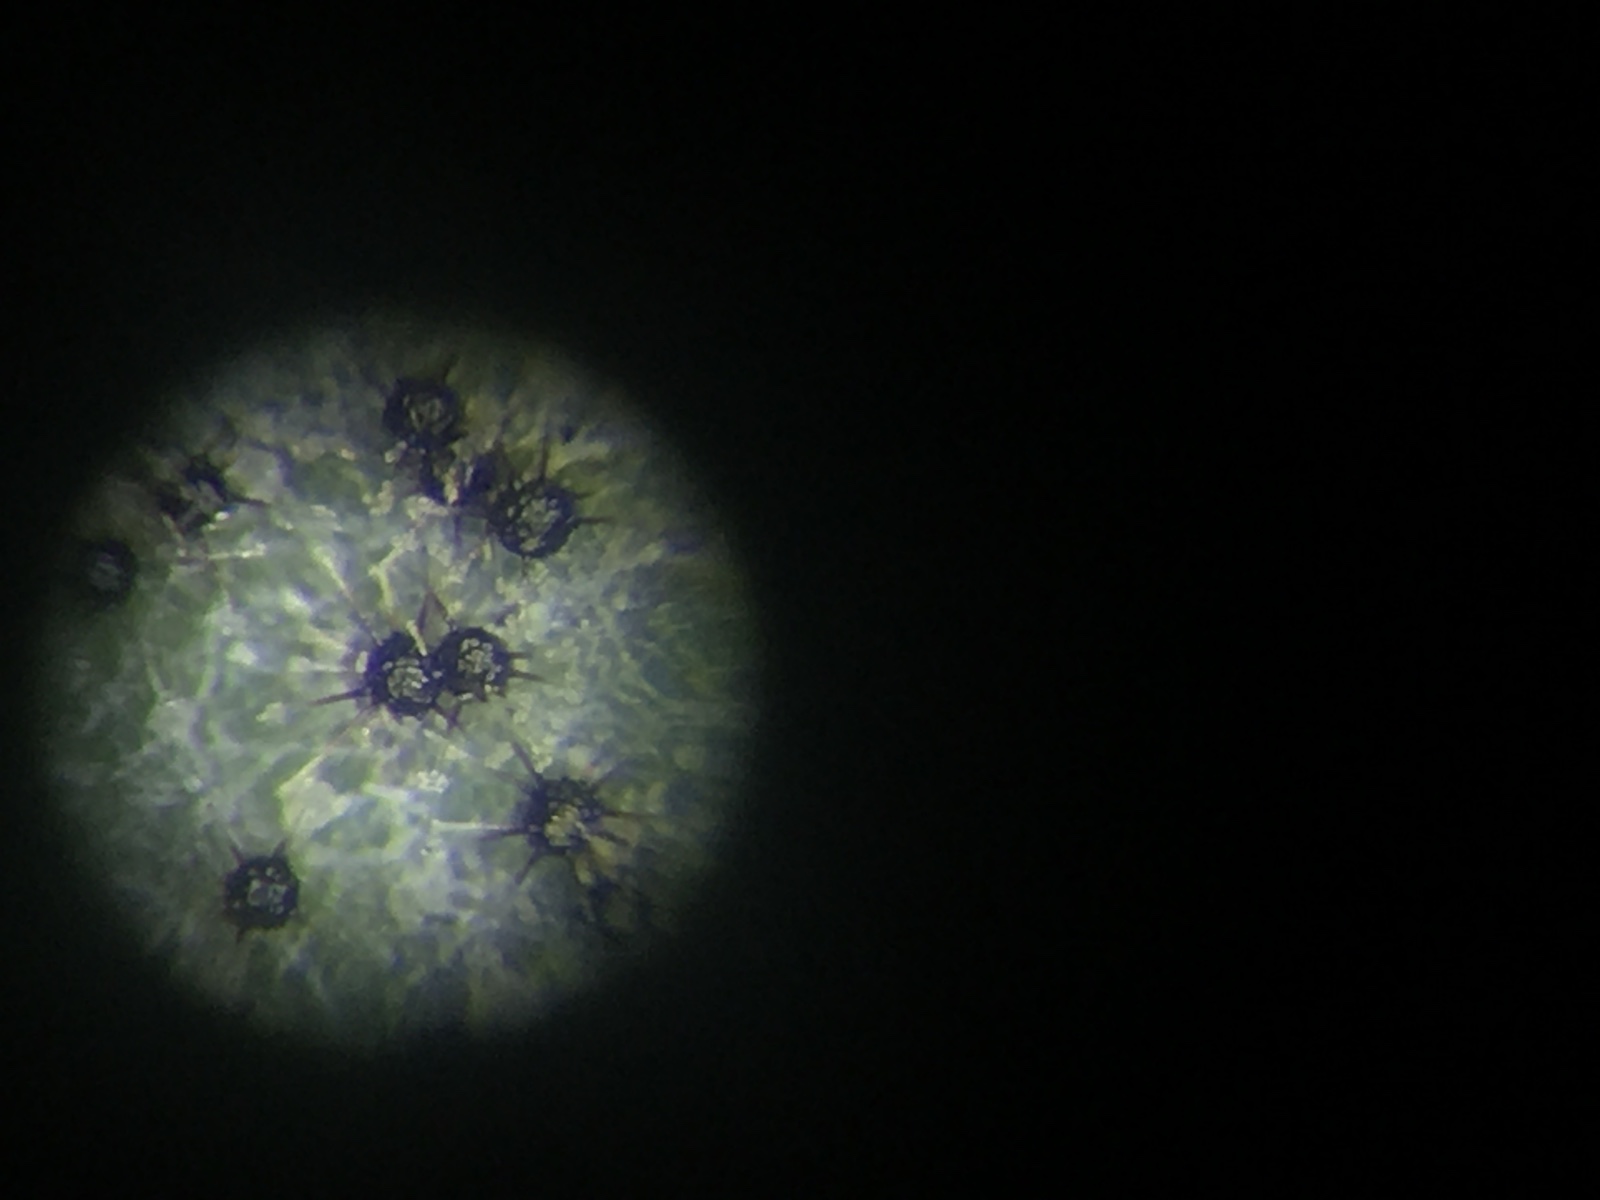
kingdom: Fungi
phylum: Ascomycota
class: Leotiomycetes
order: Helotiales
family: Erysiphaceae
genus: Podosphaera
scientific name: Podosphaera amelanchieris
